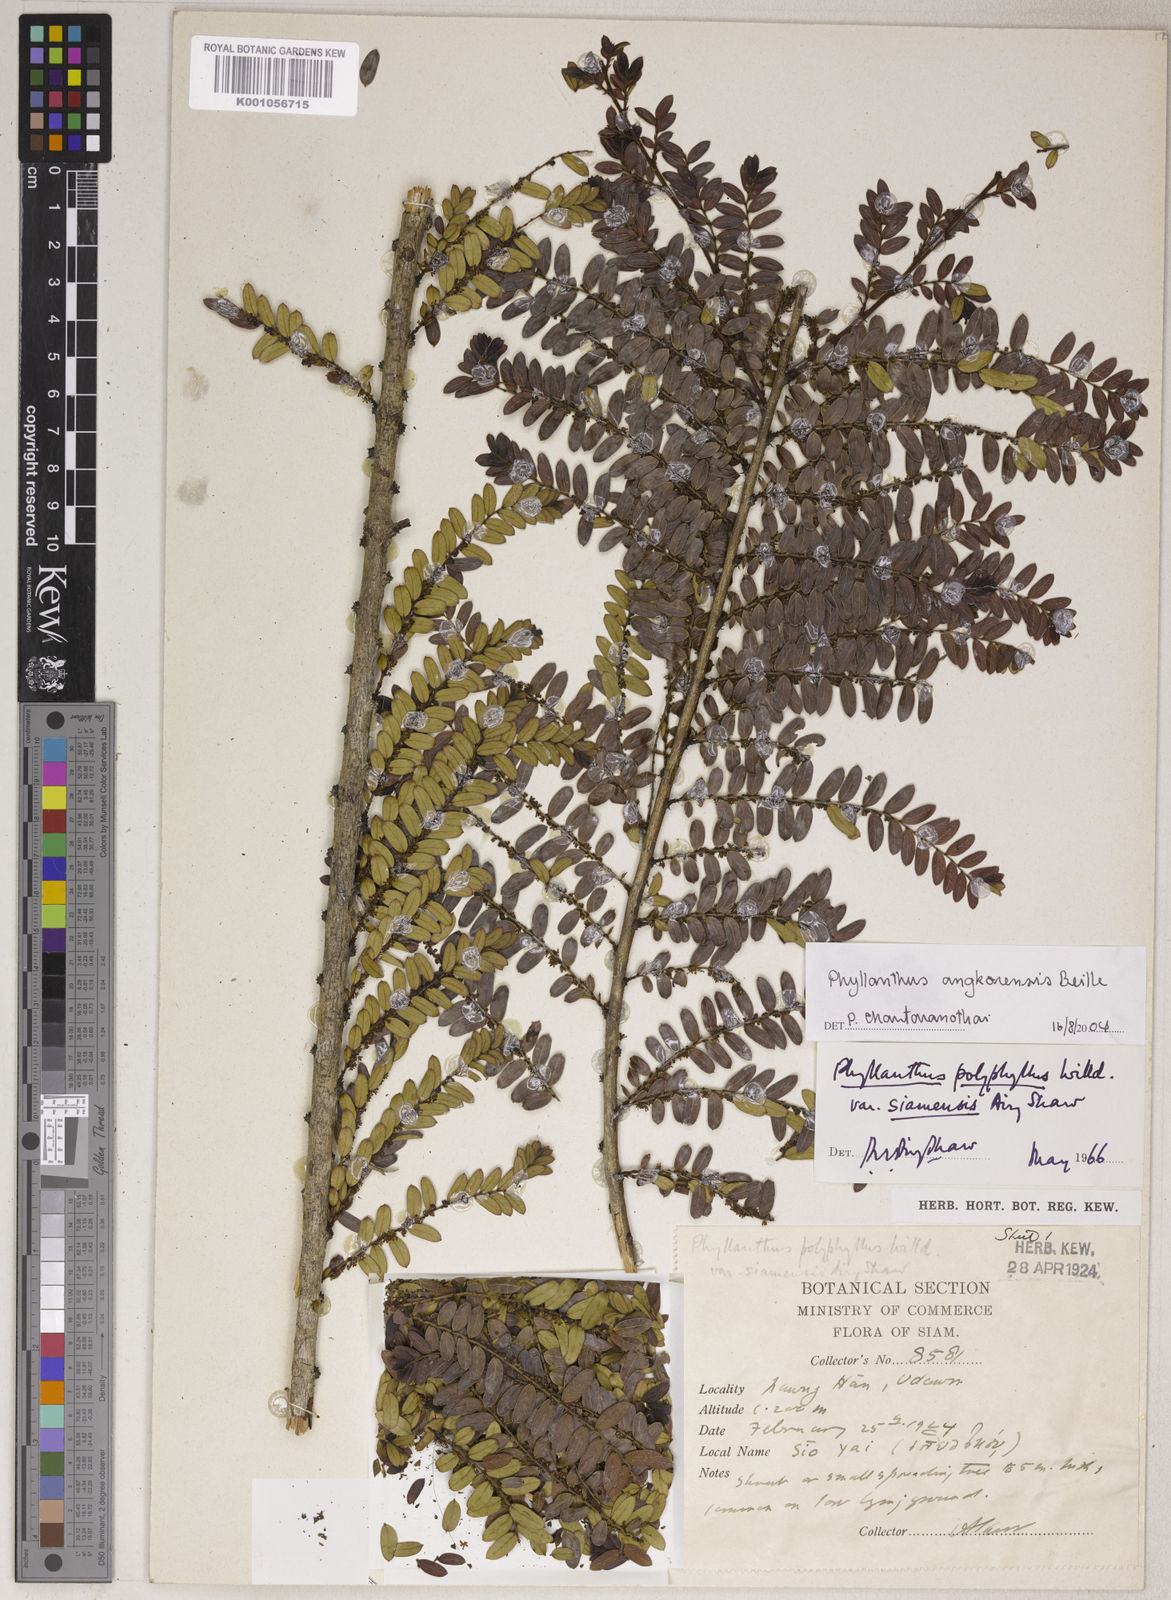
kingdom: Plantae
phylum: Tracheophyta
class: Magnoliopsida
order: Malpighiales
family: Phyllanthaceae
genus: Phyllanthus
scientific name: Phyllanthus angkorensis
